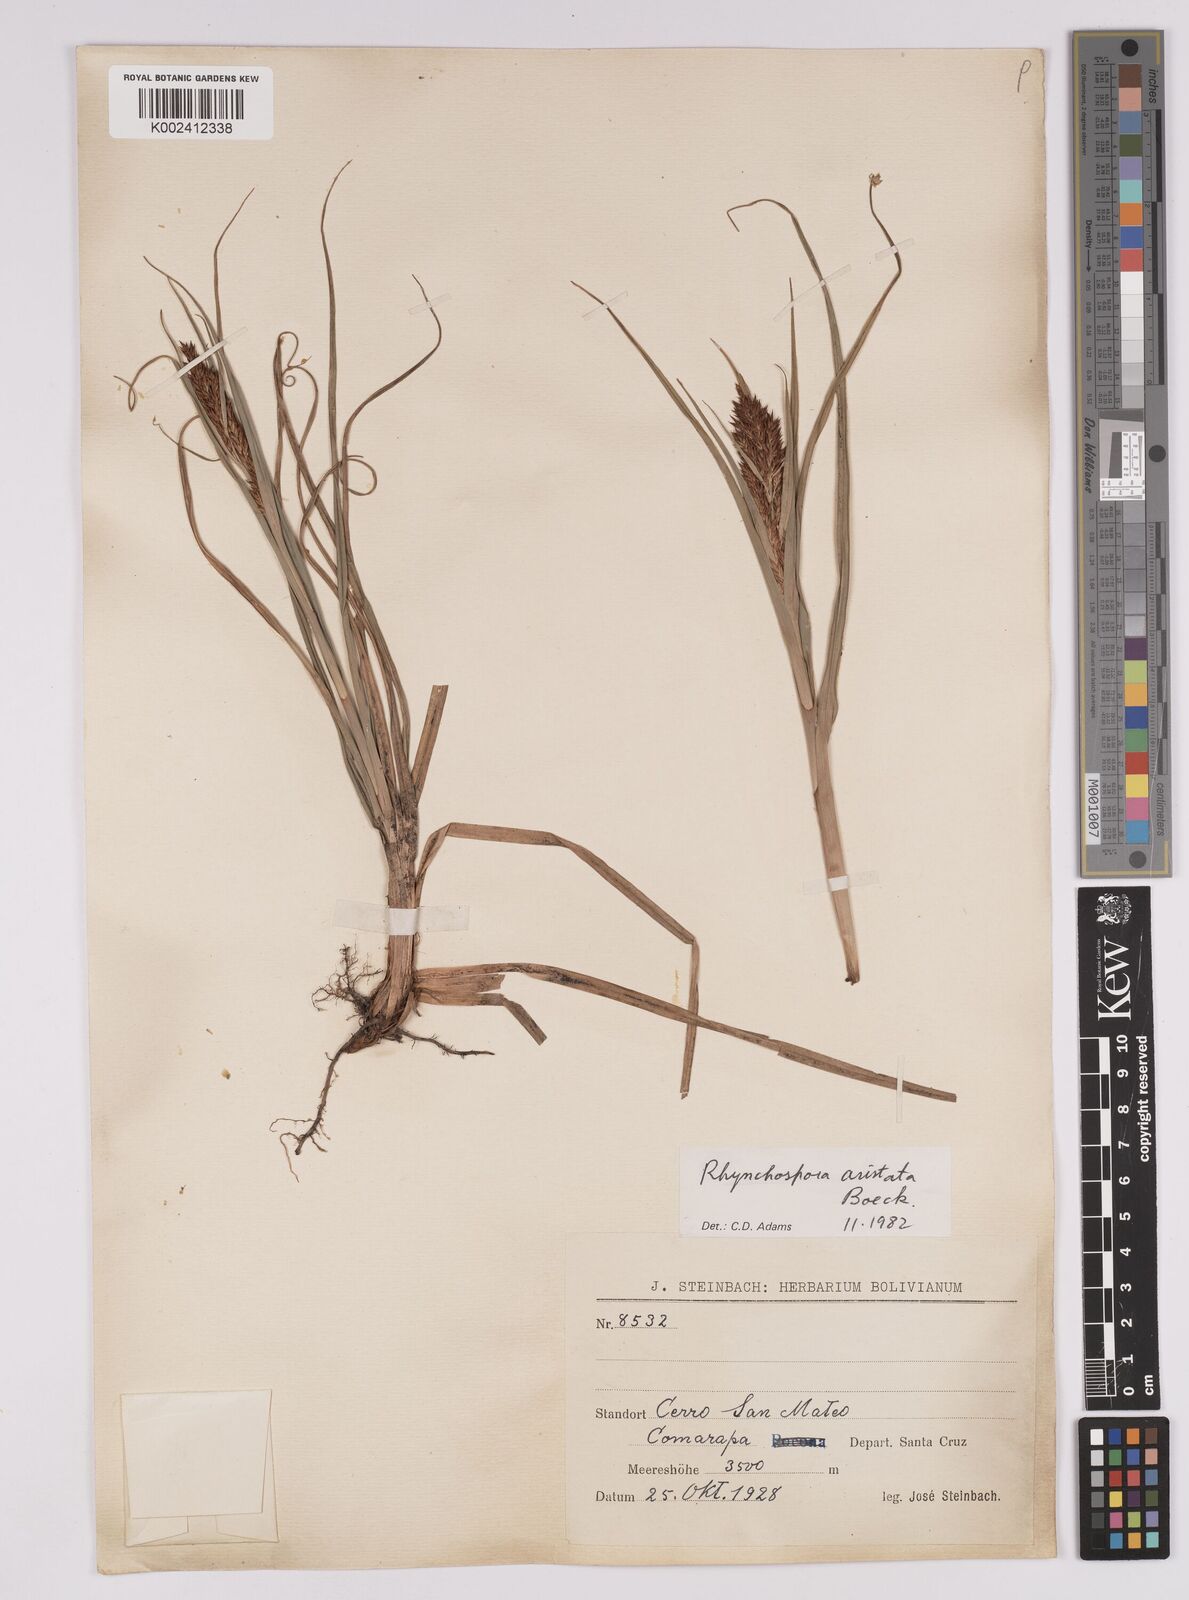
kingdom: Plantae
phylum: Tracheophyta
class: Liliopsida
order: Poales
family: Cyperaceae
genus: Rhynchospora
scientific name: Rhynchospora aristata
